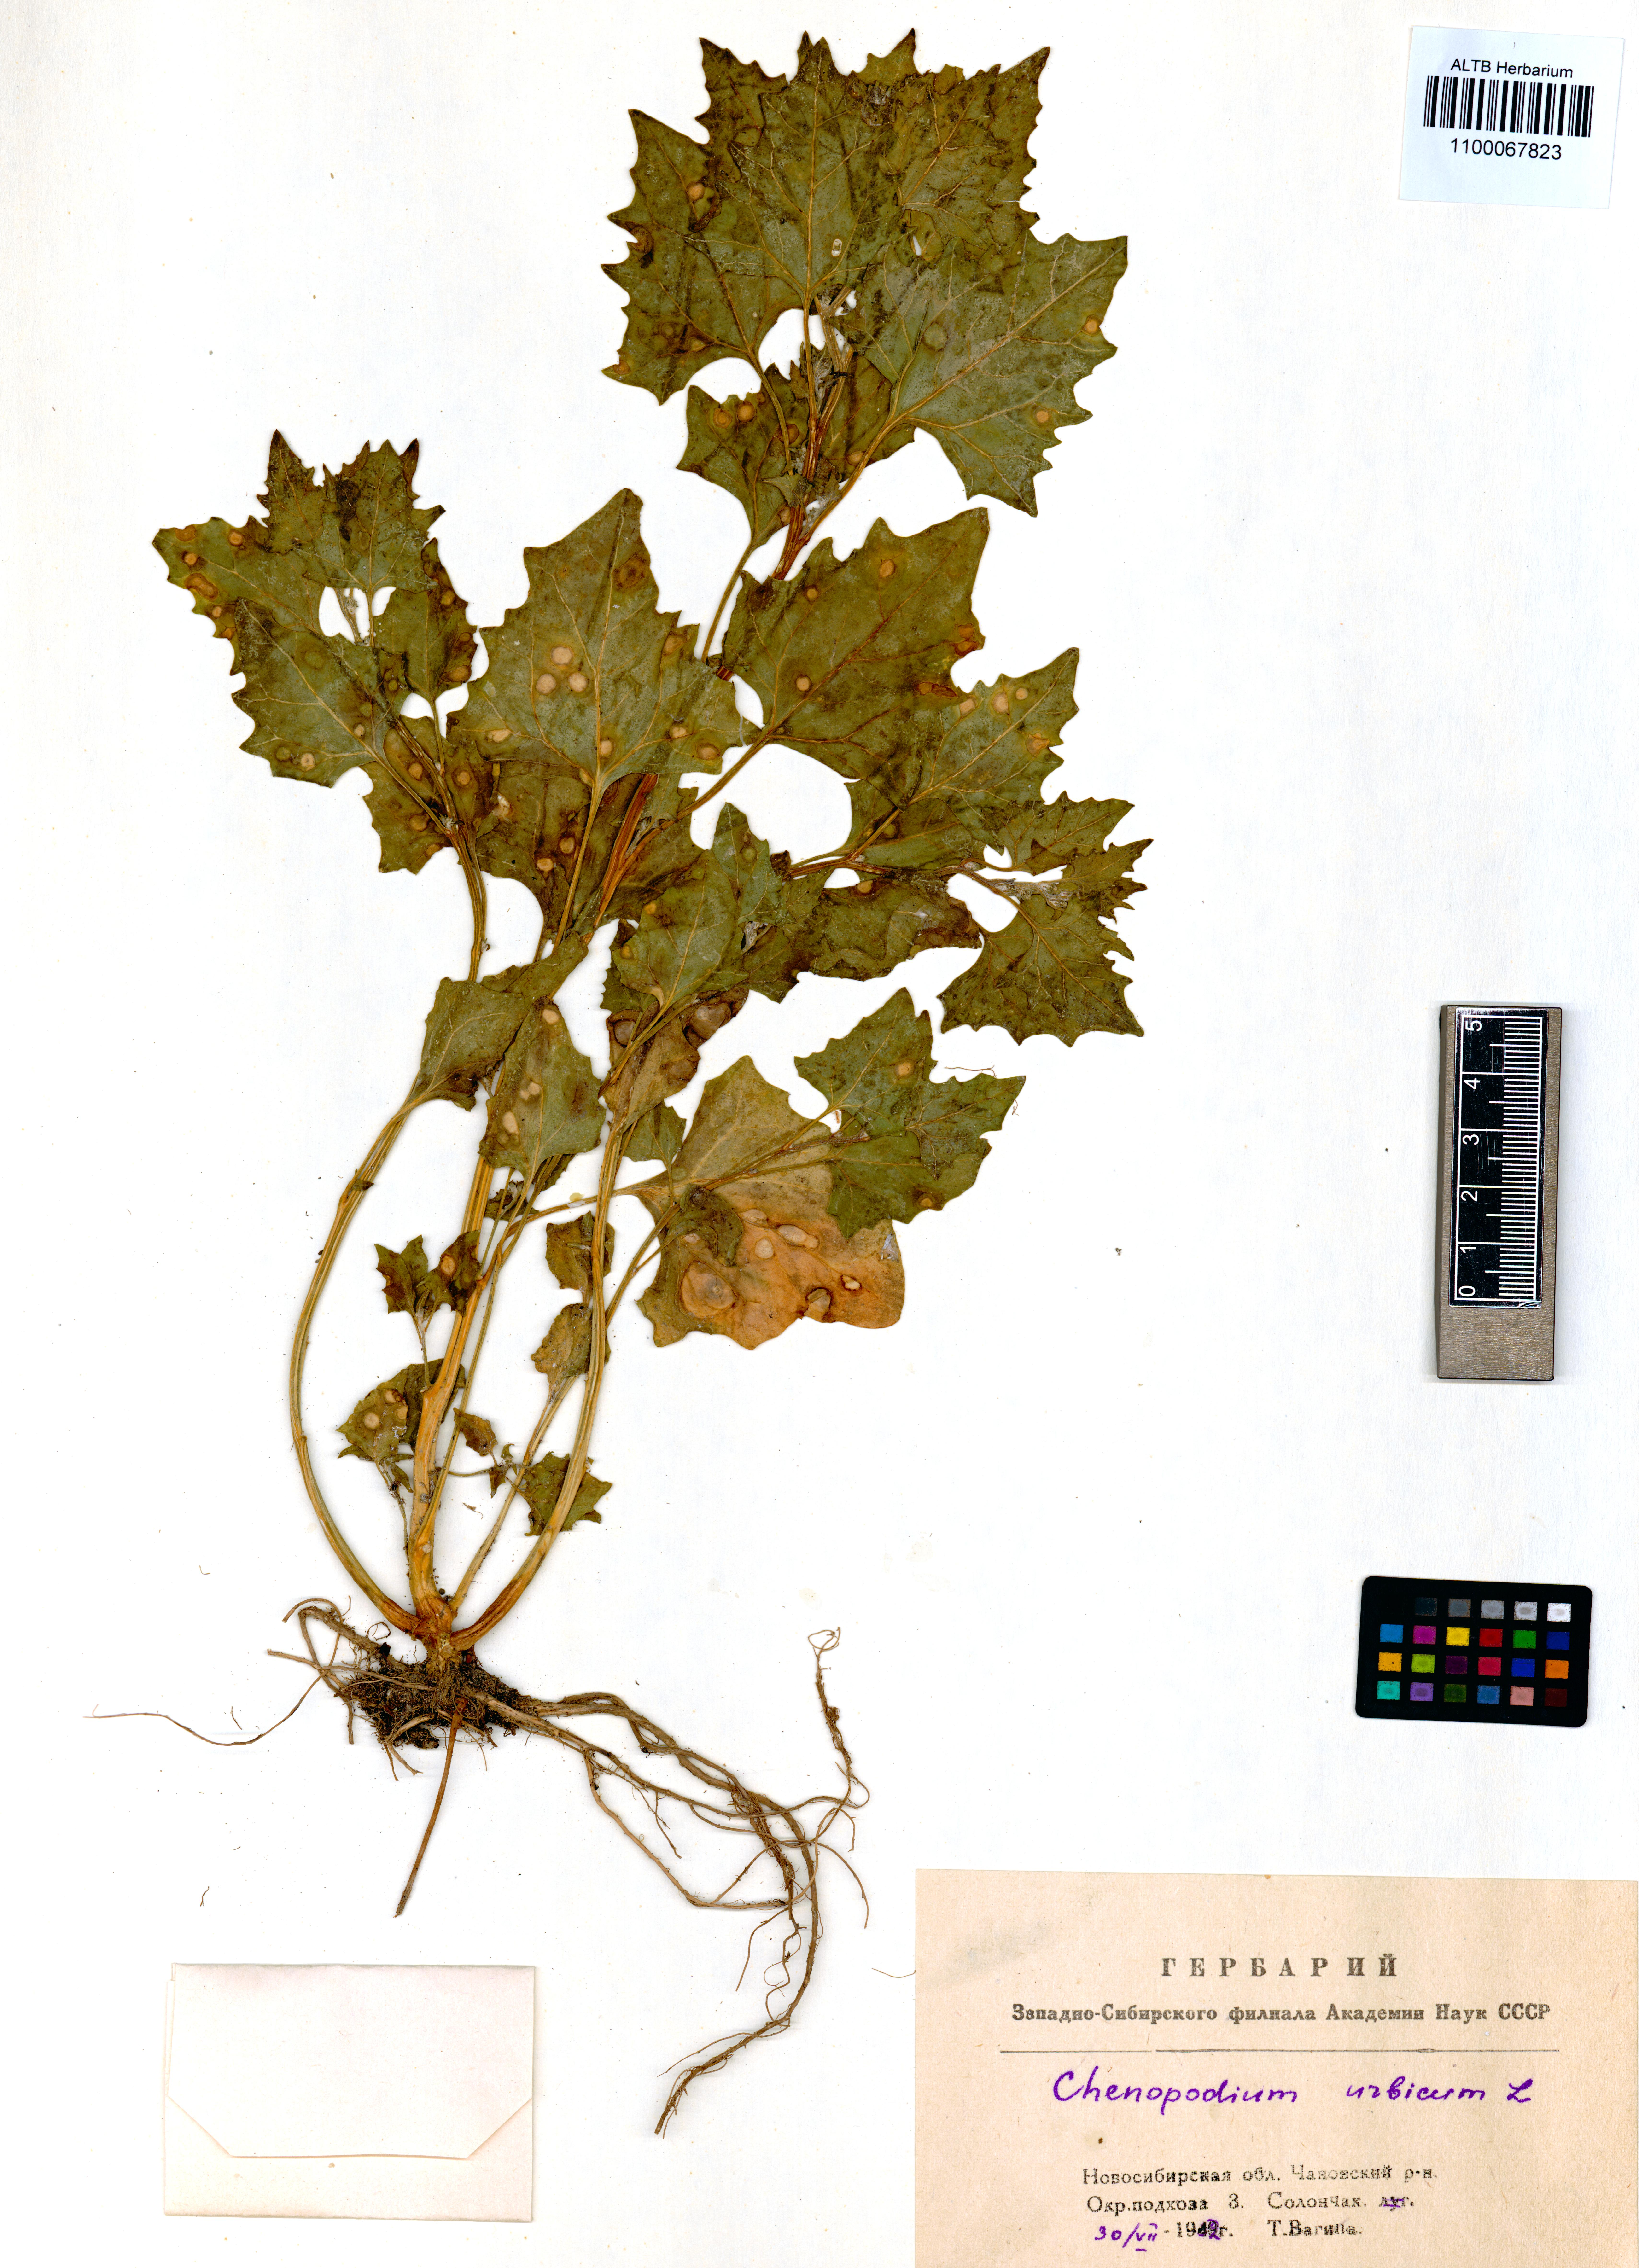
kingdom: Plantae
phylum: Tracheophyta
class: Magnoliopsida
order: Caryophyllales
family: Amaranthaceae
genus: Oxybasis
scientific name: Oxybasis urbica
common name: City goosefoot
